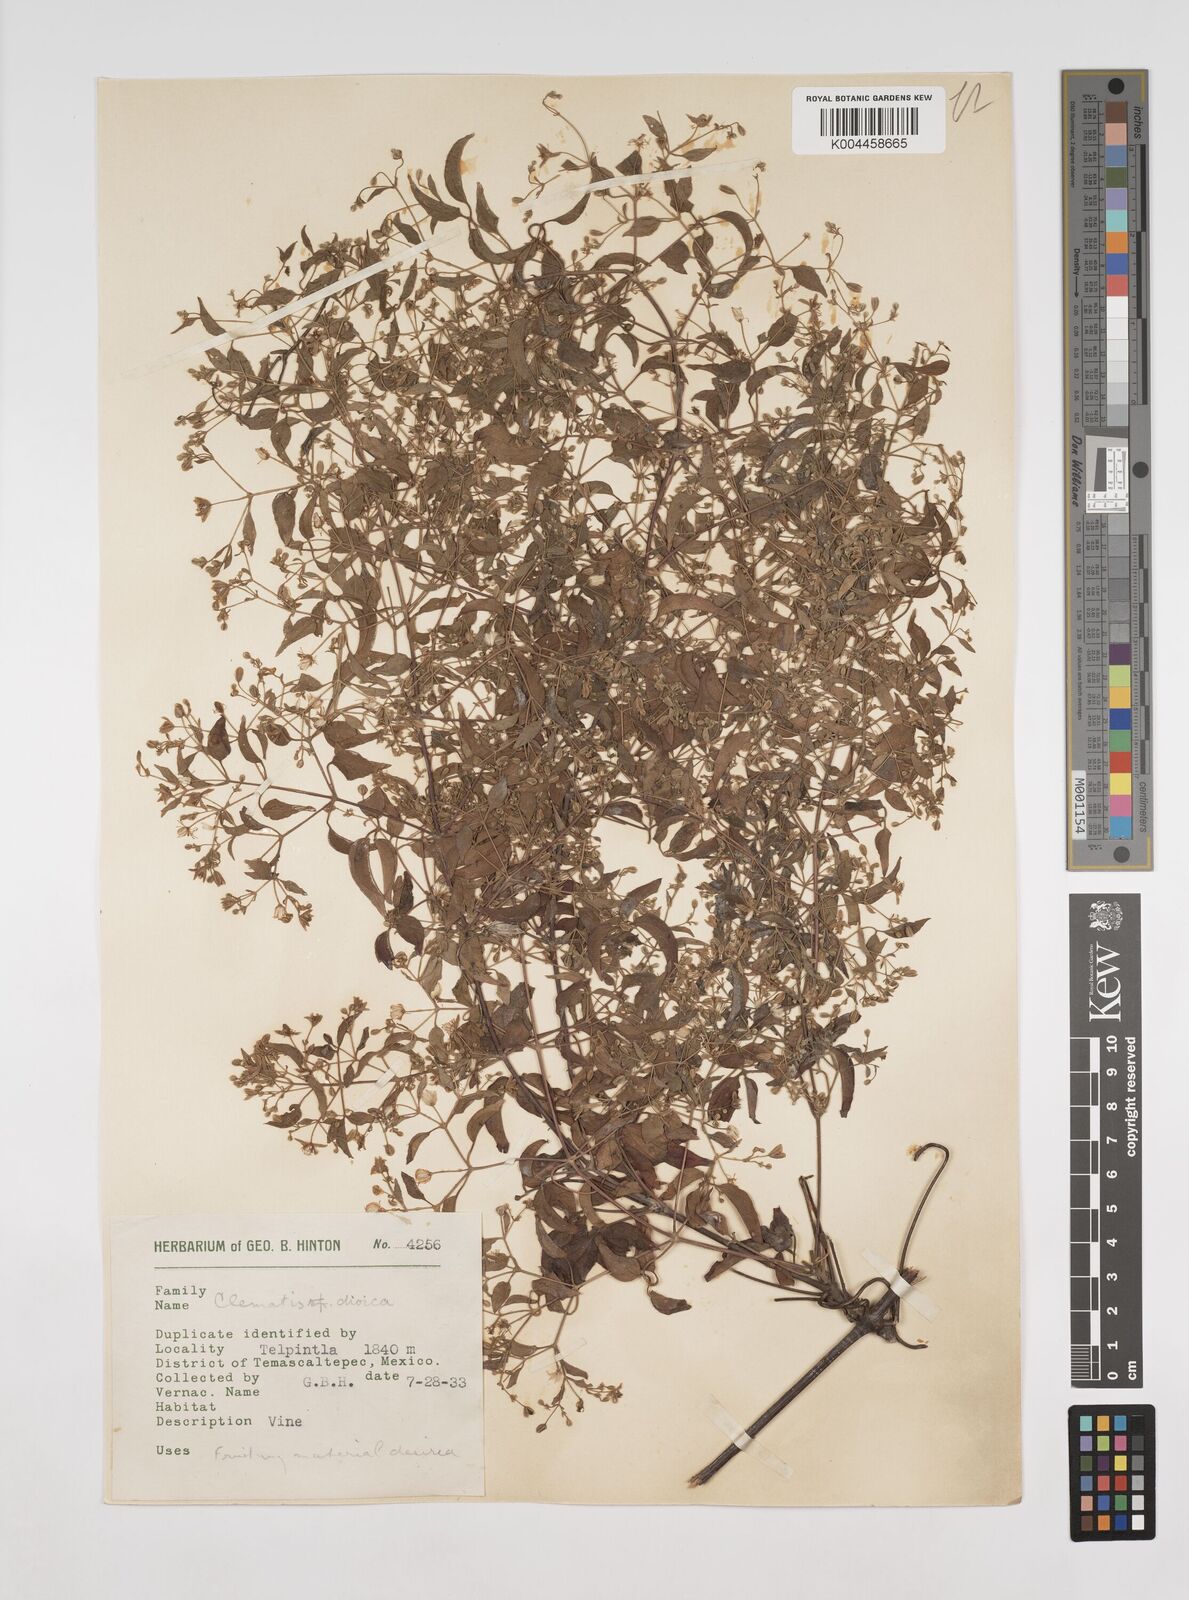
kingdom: Plantae
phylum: Tracheophyta
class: Magnoliopsida
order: Ranunculales
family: Ranunculaceae
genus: Clematis
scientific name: Clematis dioica
